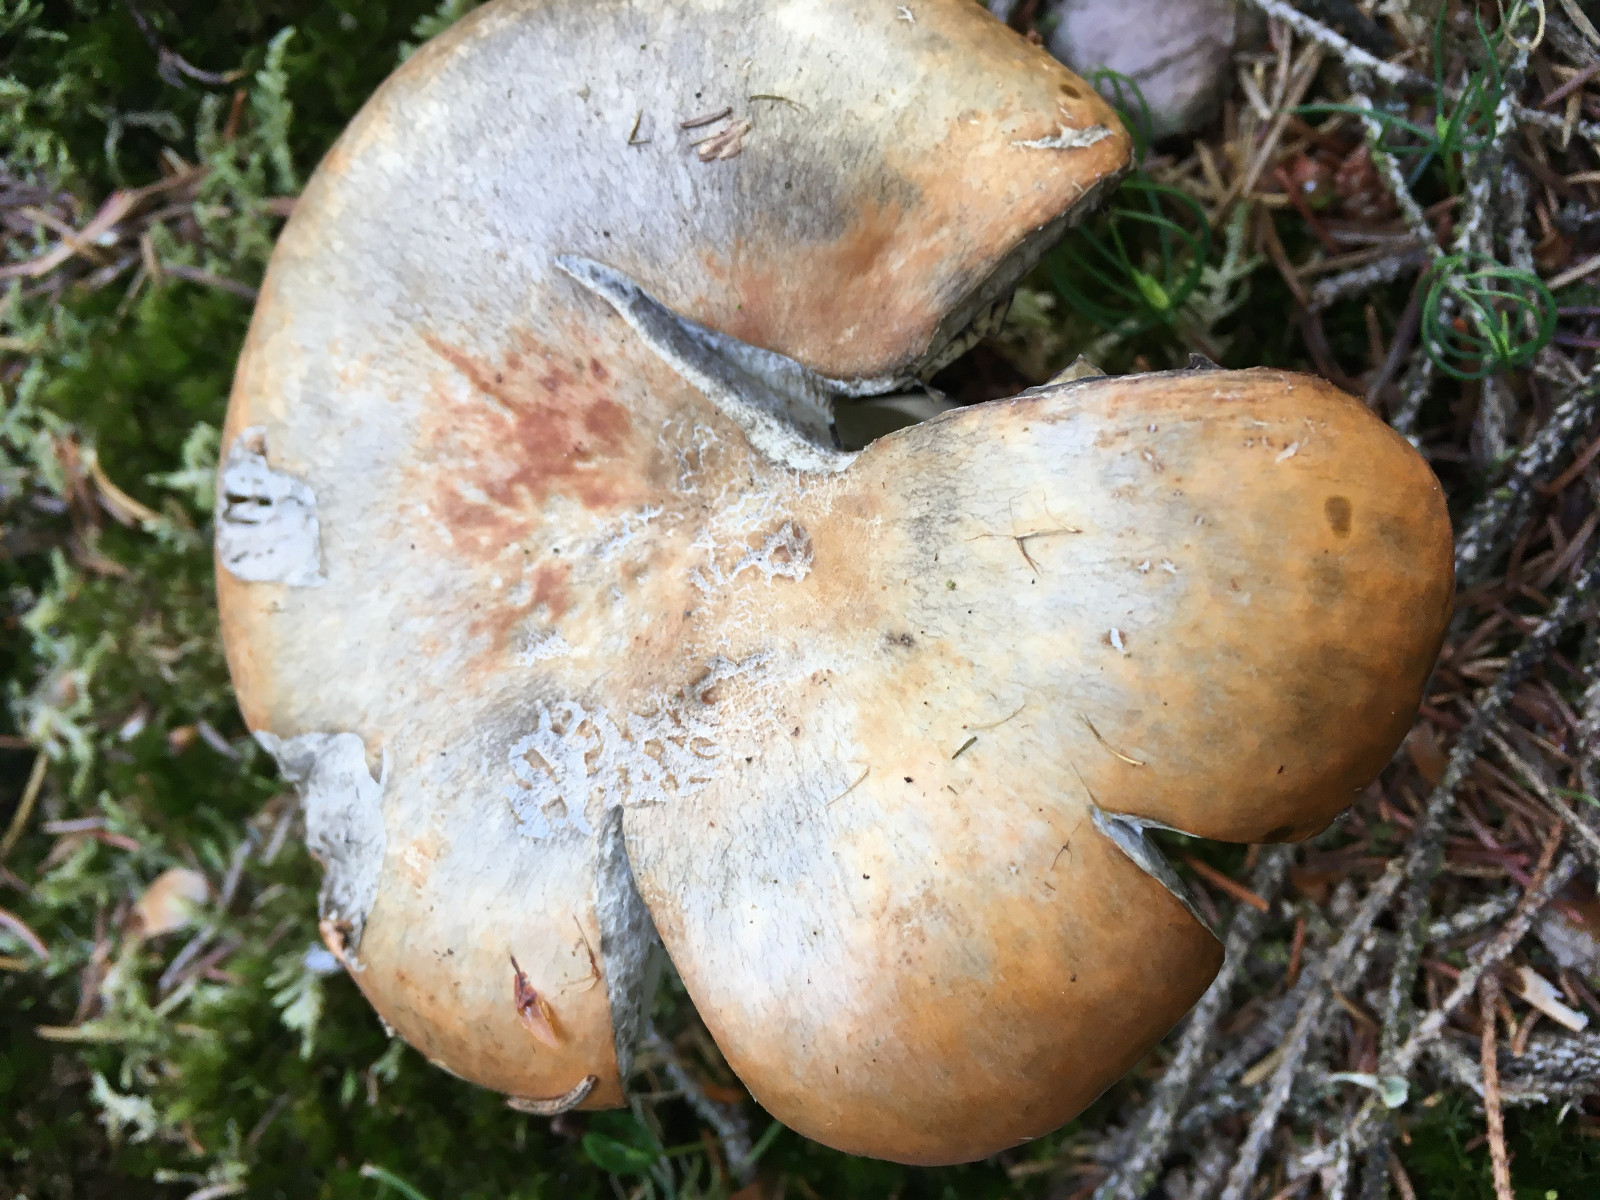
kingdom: Fungi
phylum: Basidiomycota
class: Agaricomycetes
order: Russulales
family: Russulaceae
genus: Russula
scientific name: Russula decolorans
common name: afblegende skørhat
